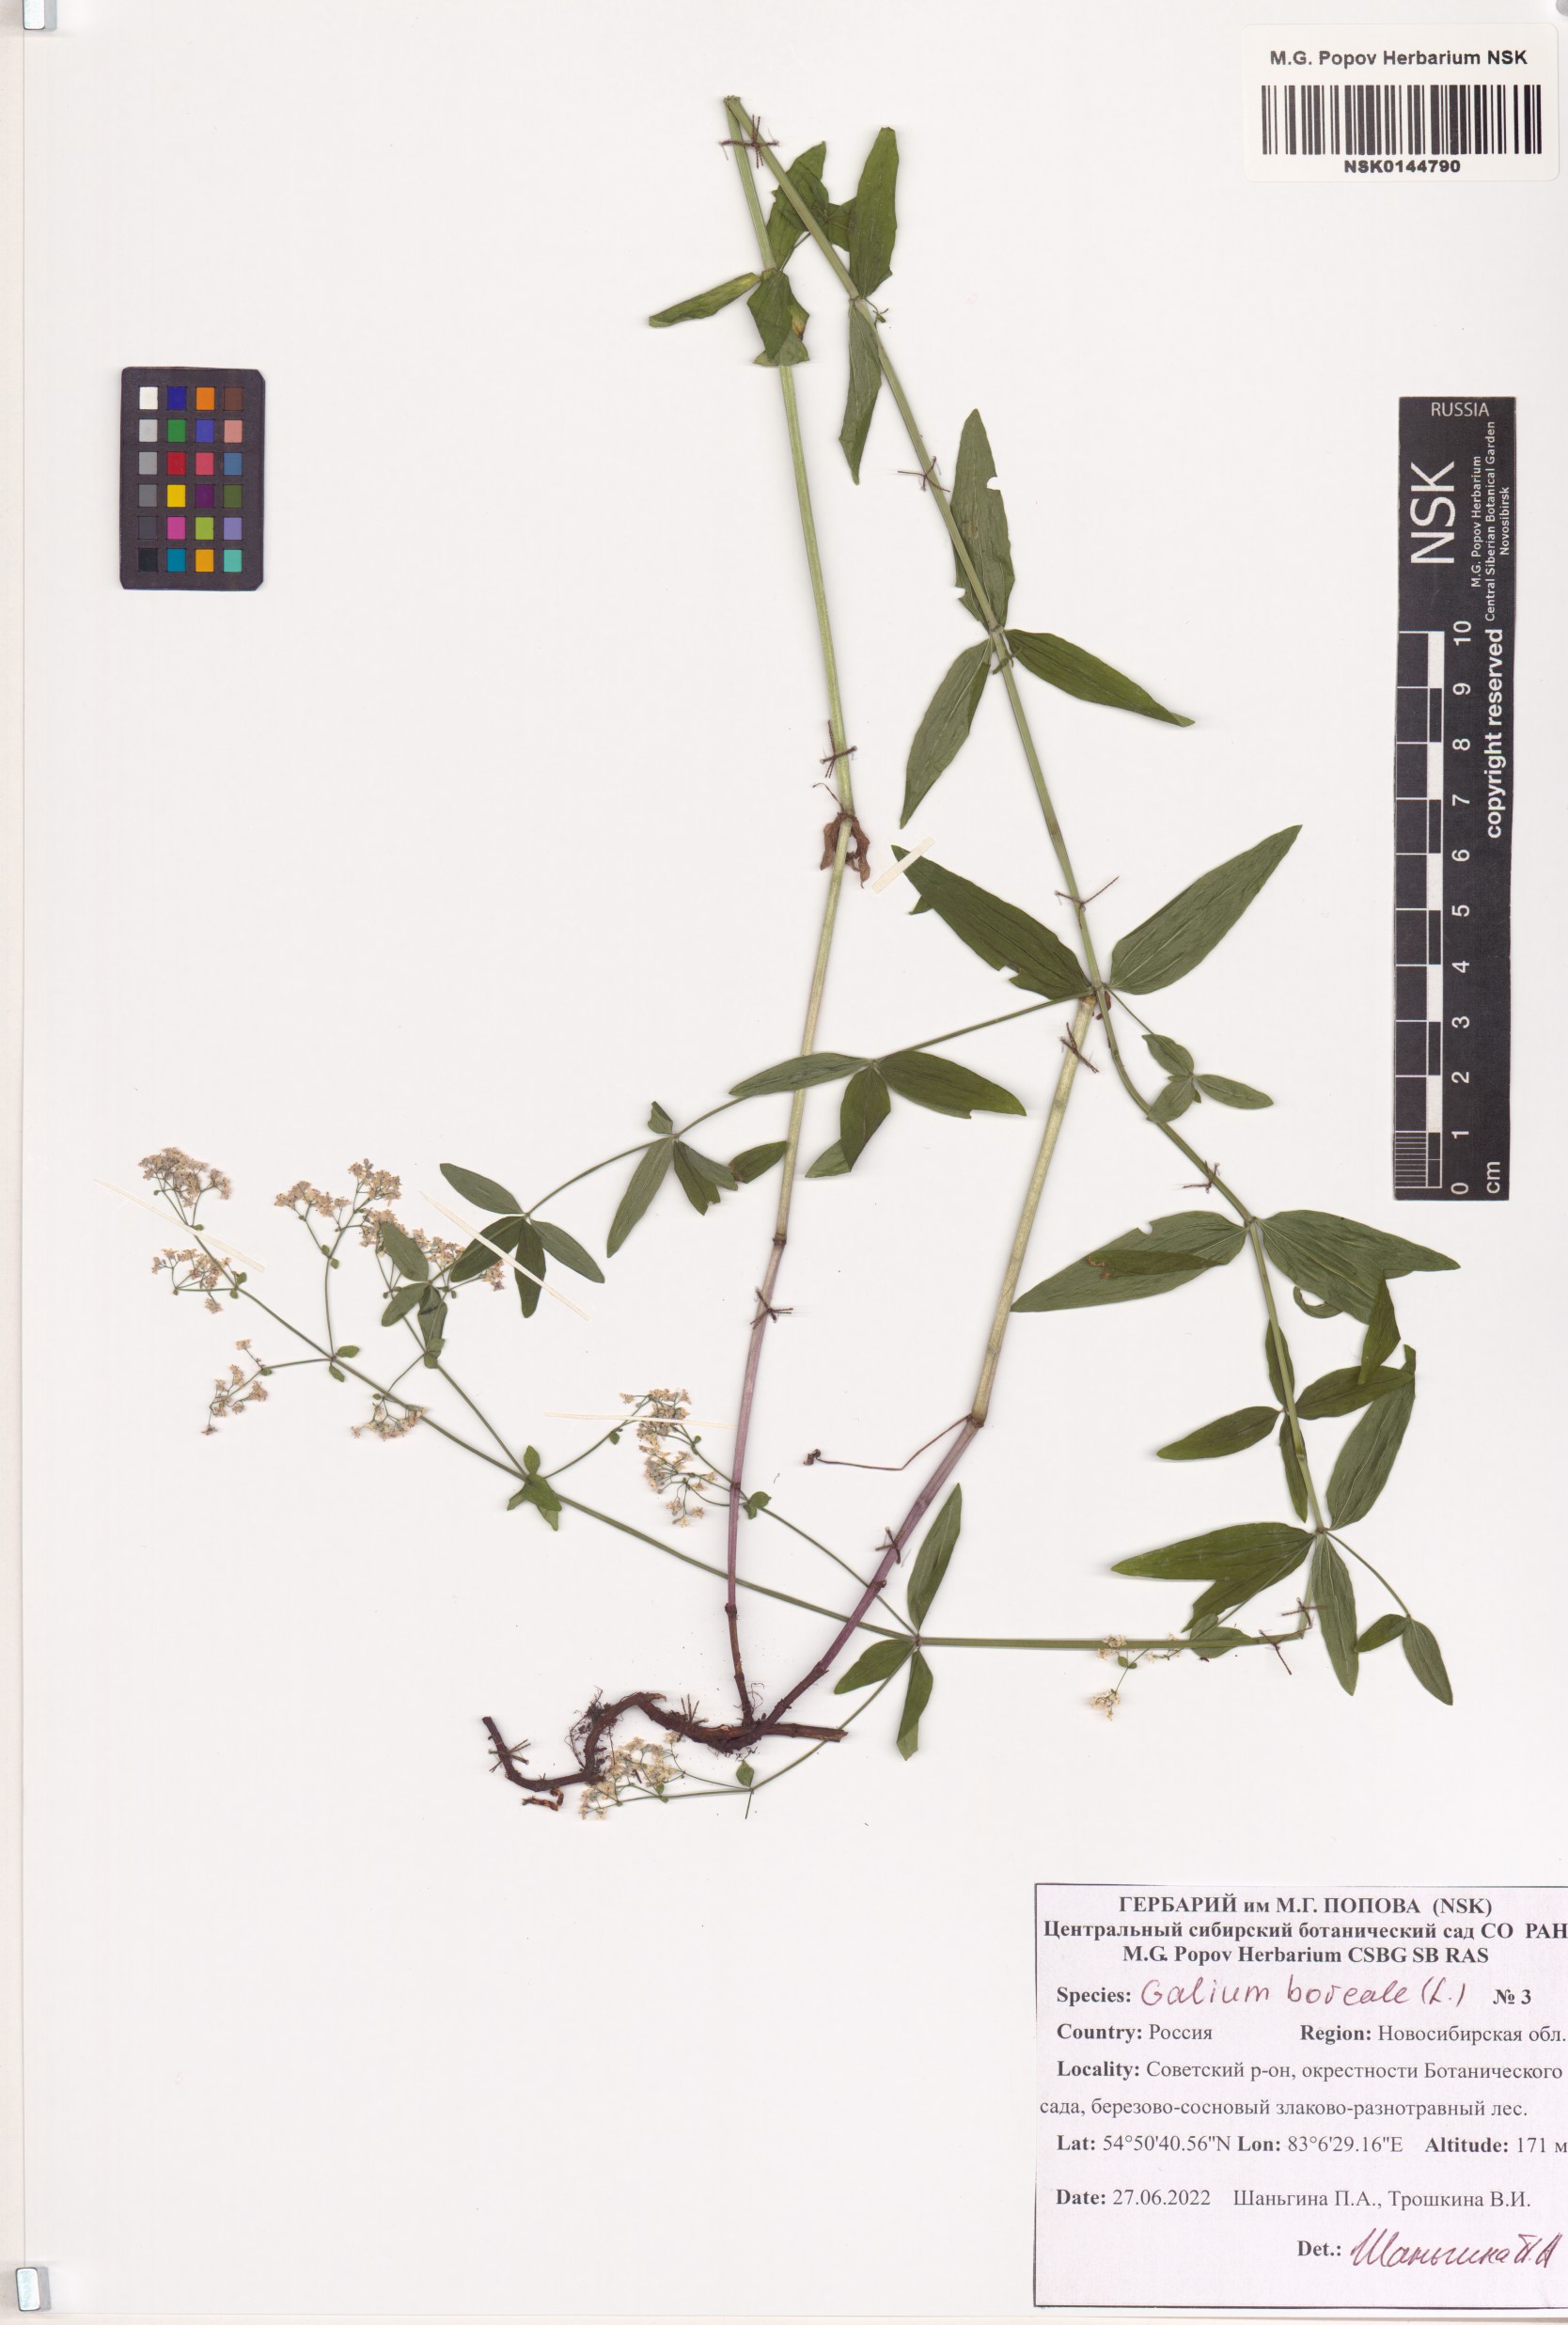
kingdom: Plantae
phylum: Tracheophyta
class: Magnoliopsida
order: Gentianales
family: Rubiaceae
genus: Galium
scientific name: Galium boreale
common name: Northern bedstraw
